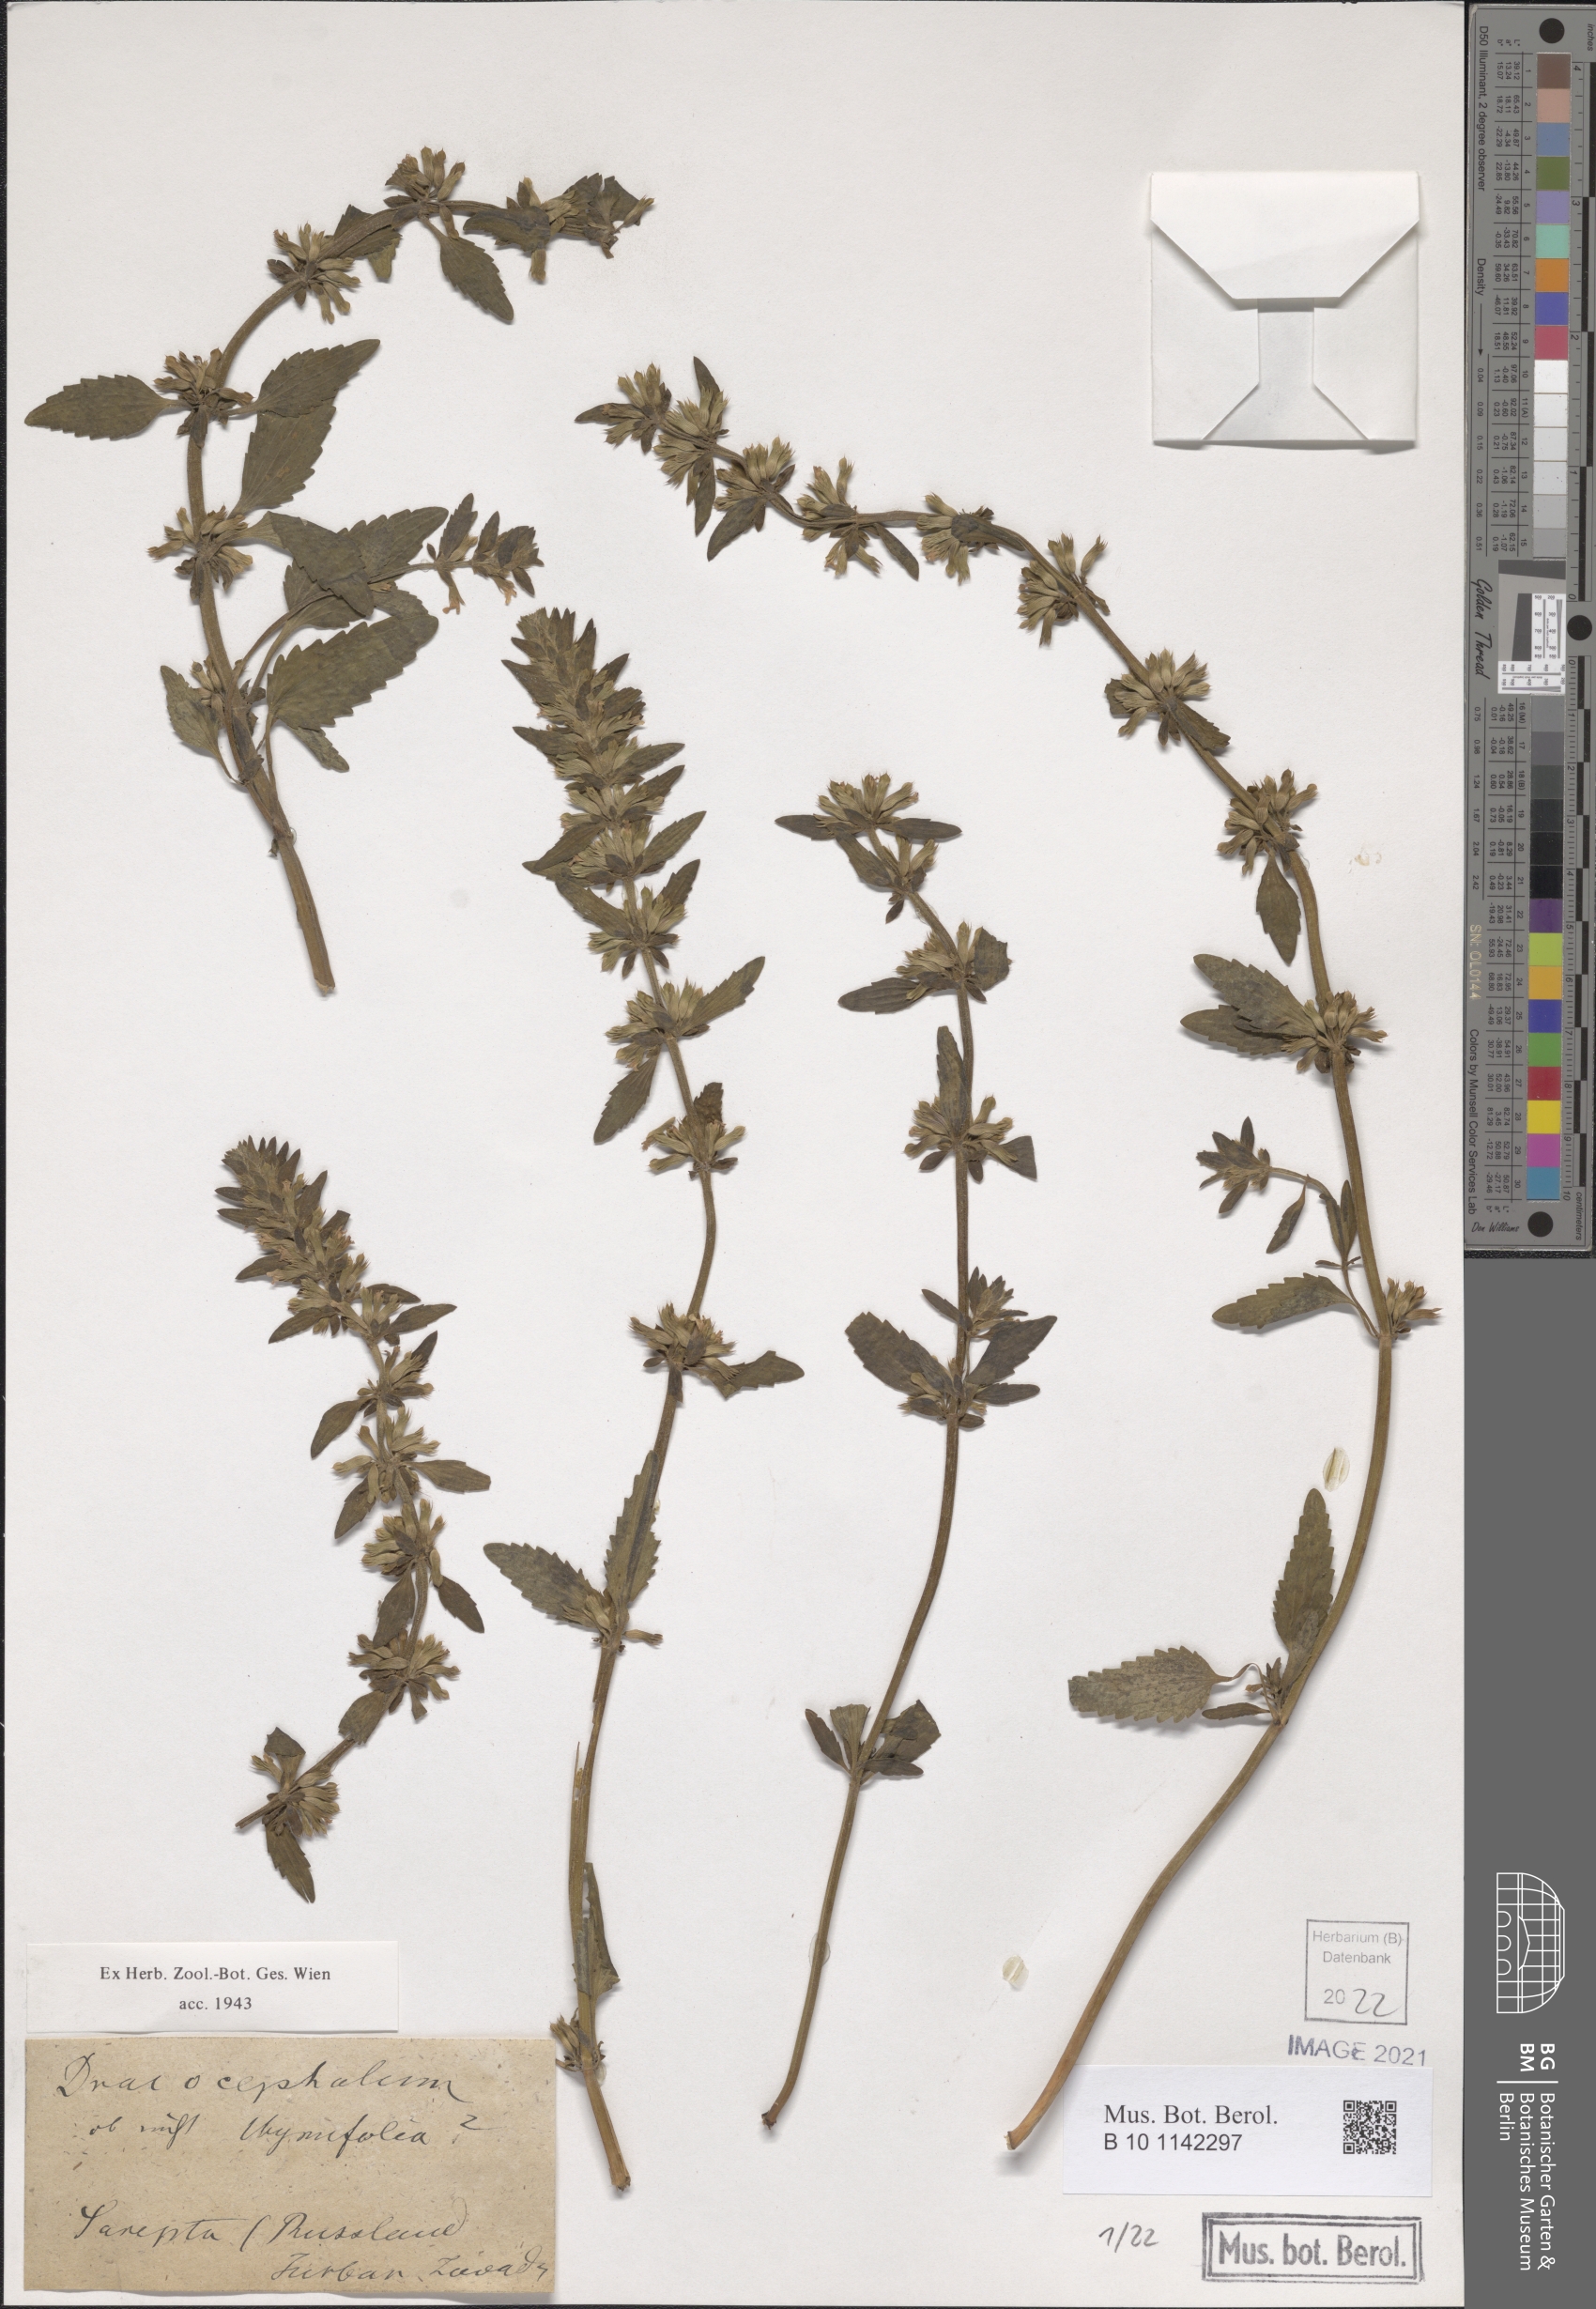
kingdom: Plantae
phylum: Tracheophyta
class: Magnoliopsida
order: Lamiales
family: Lamiaceae
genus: Dracocephalum
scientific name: Dracocephalum thymiflorum
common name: Thymeleaf dragonhead
